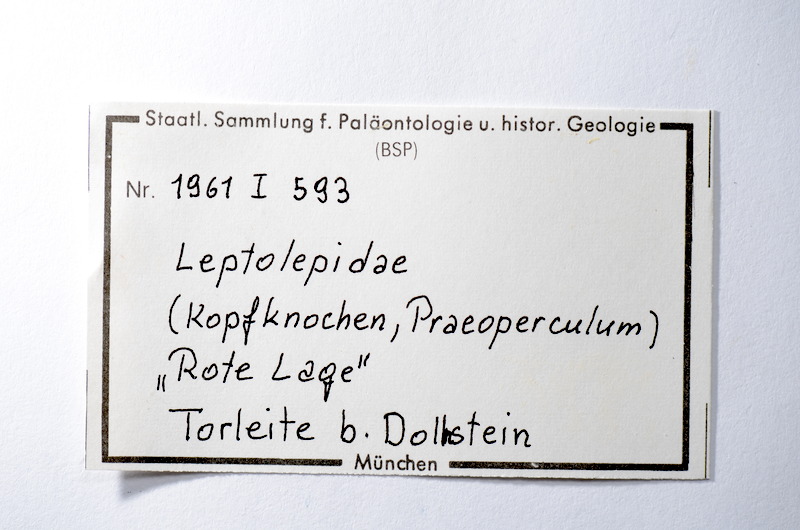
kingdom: Animalia
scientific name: Animalia
